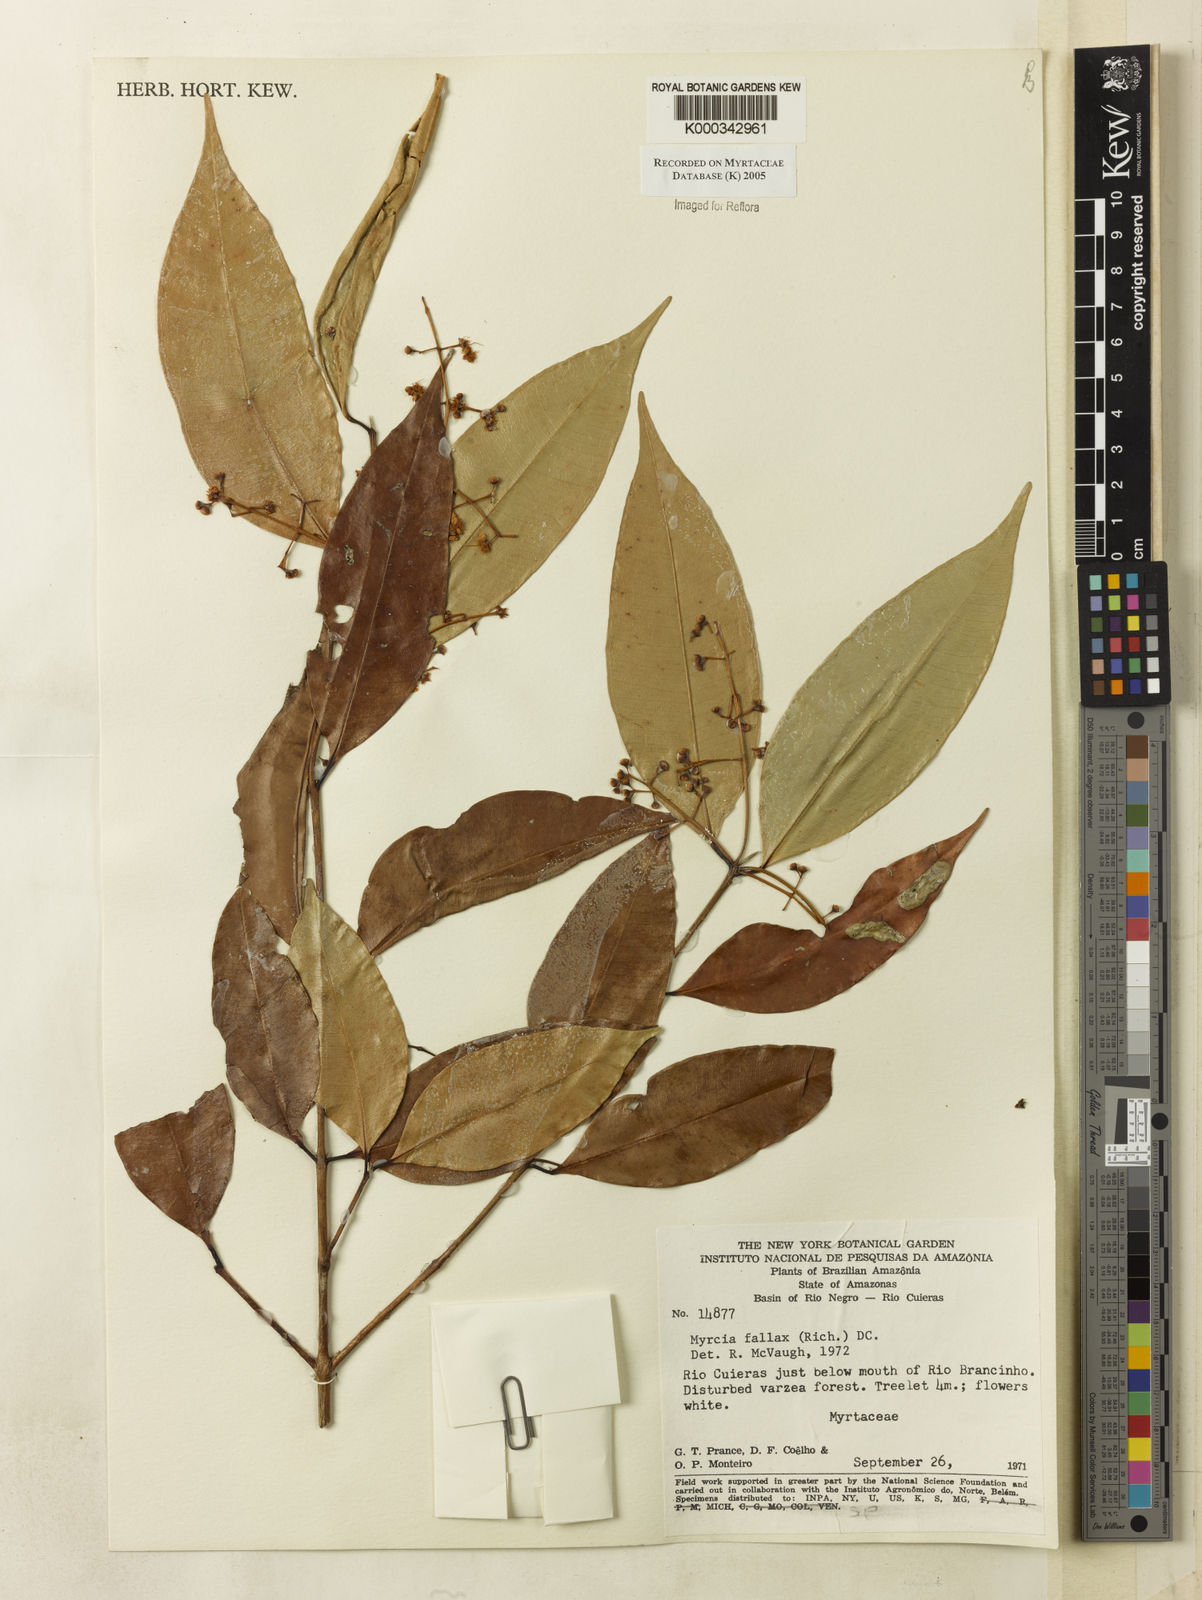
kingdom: Plantae
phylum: Tracheophyta
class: Magnoliopsida
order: Myrtales
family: Myrtaceae
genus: Myrcia
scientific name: Myrcia splendens
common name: Surinam cherry
